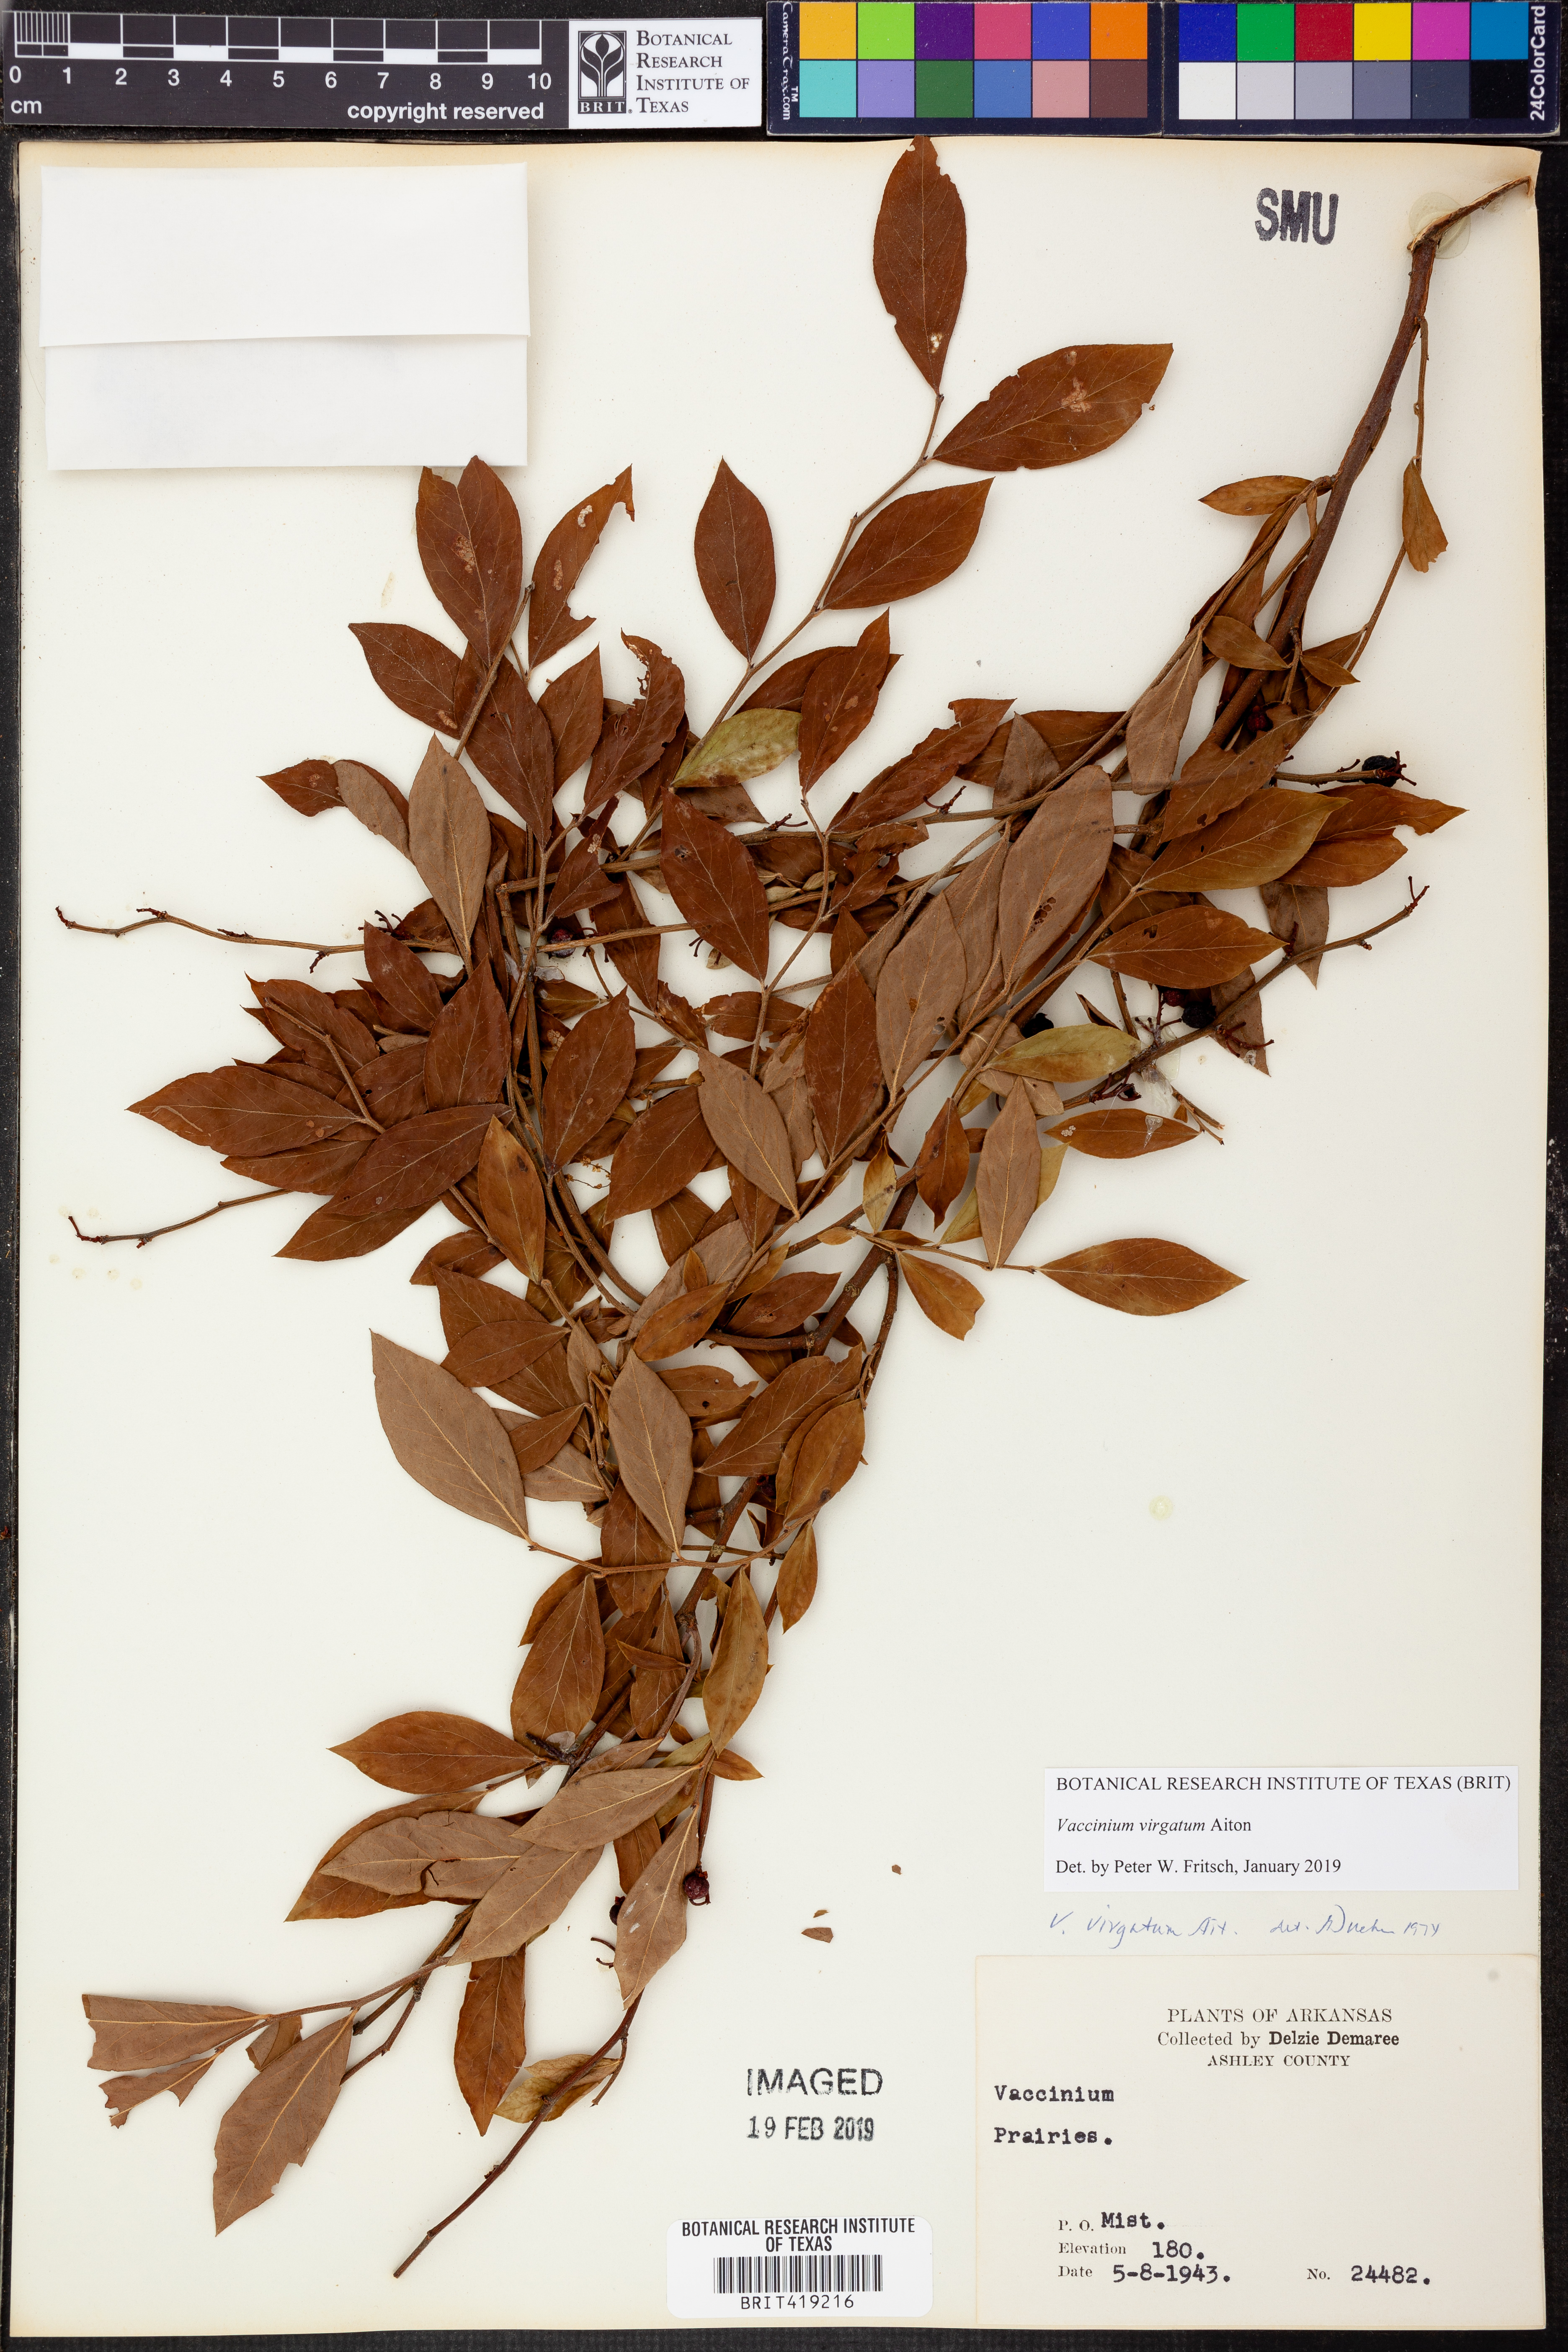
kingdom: Plantae
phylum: Tracheophyta
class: Magnoliopsida
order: Ericales
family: Ericaceae
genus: Vaccinium
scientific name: Vaccinium corymbosum
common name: Blueberry
